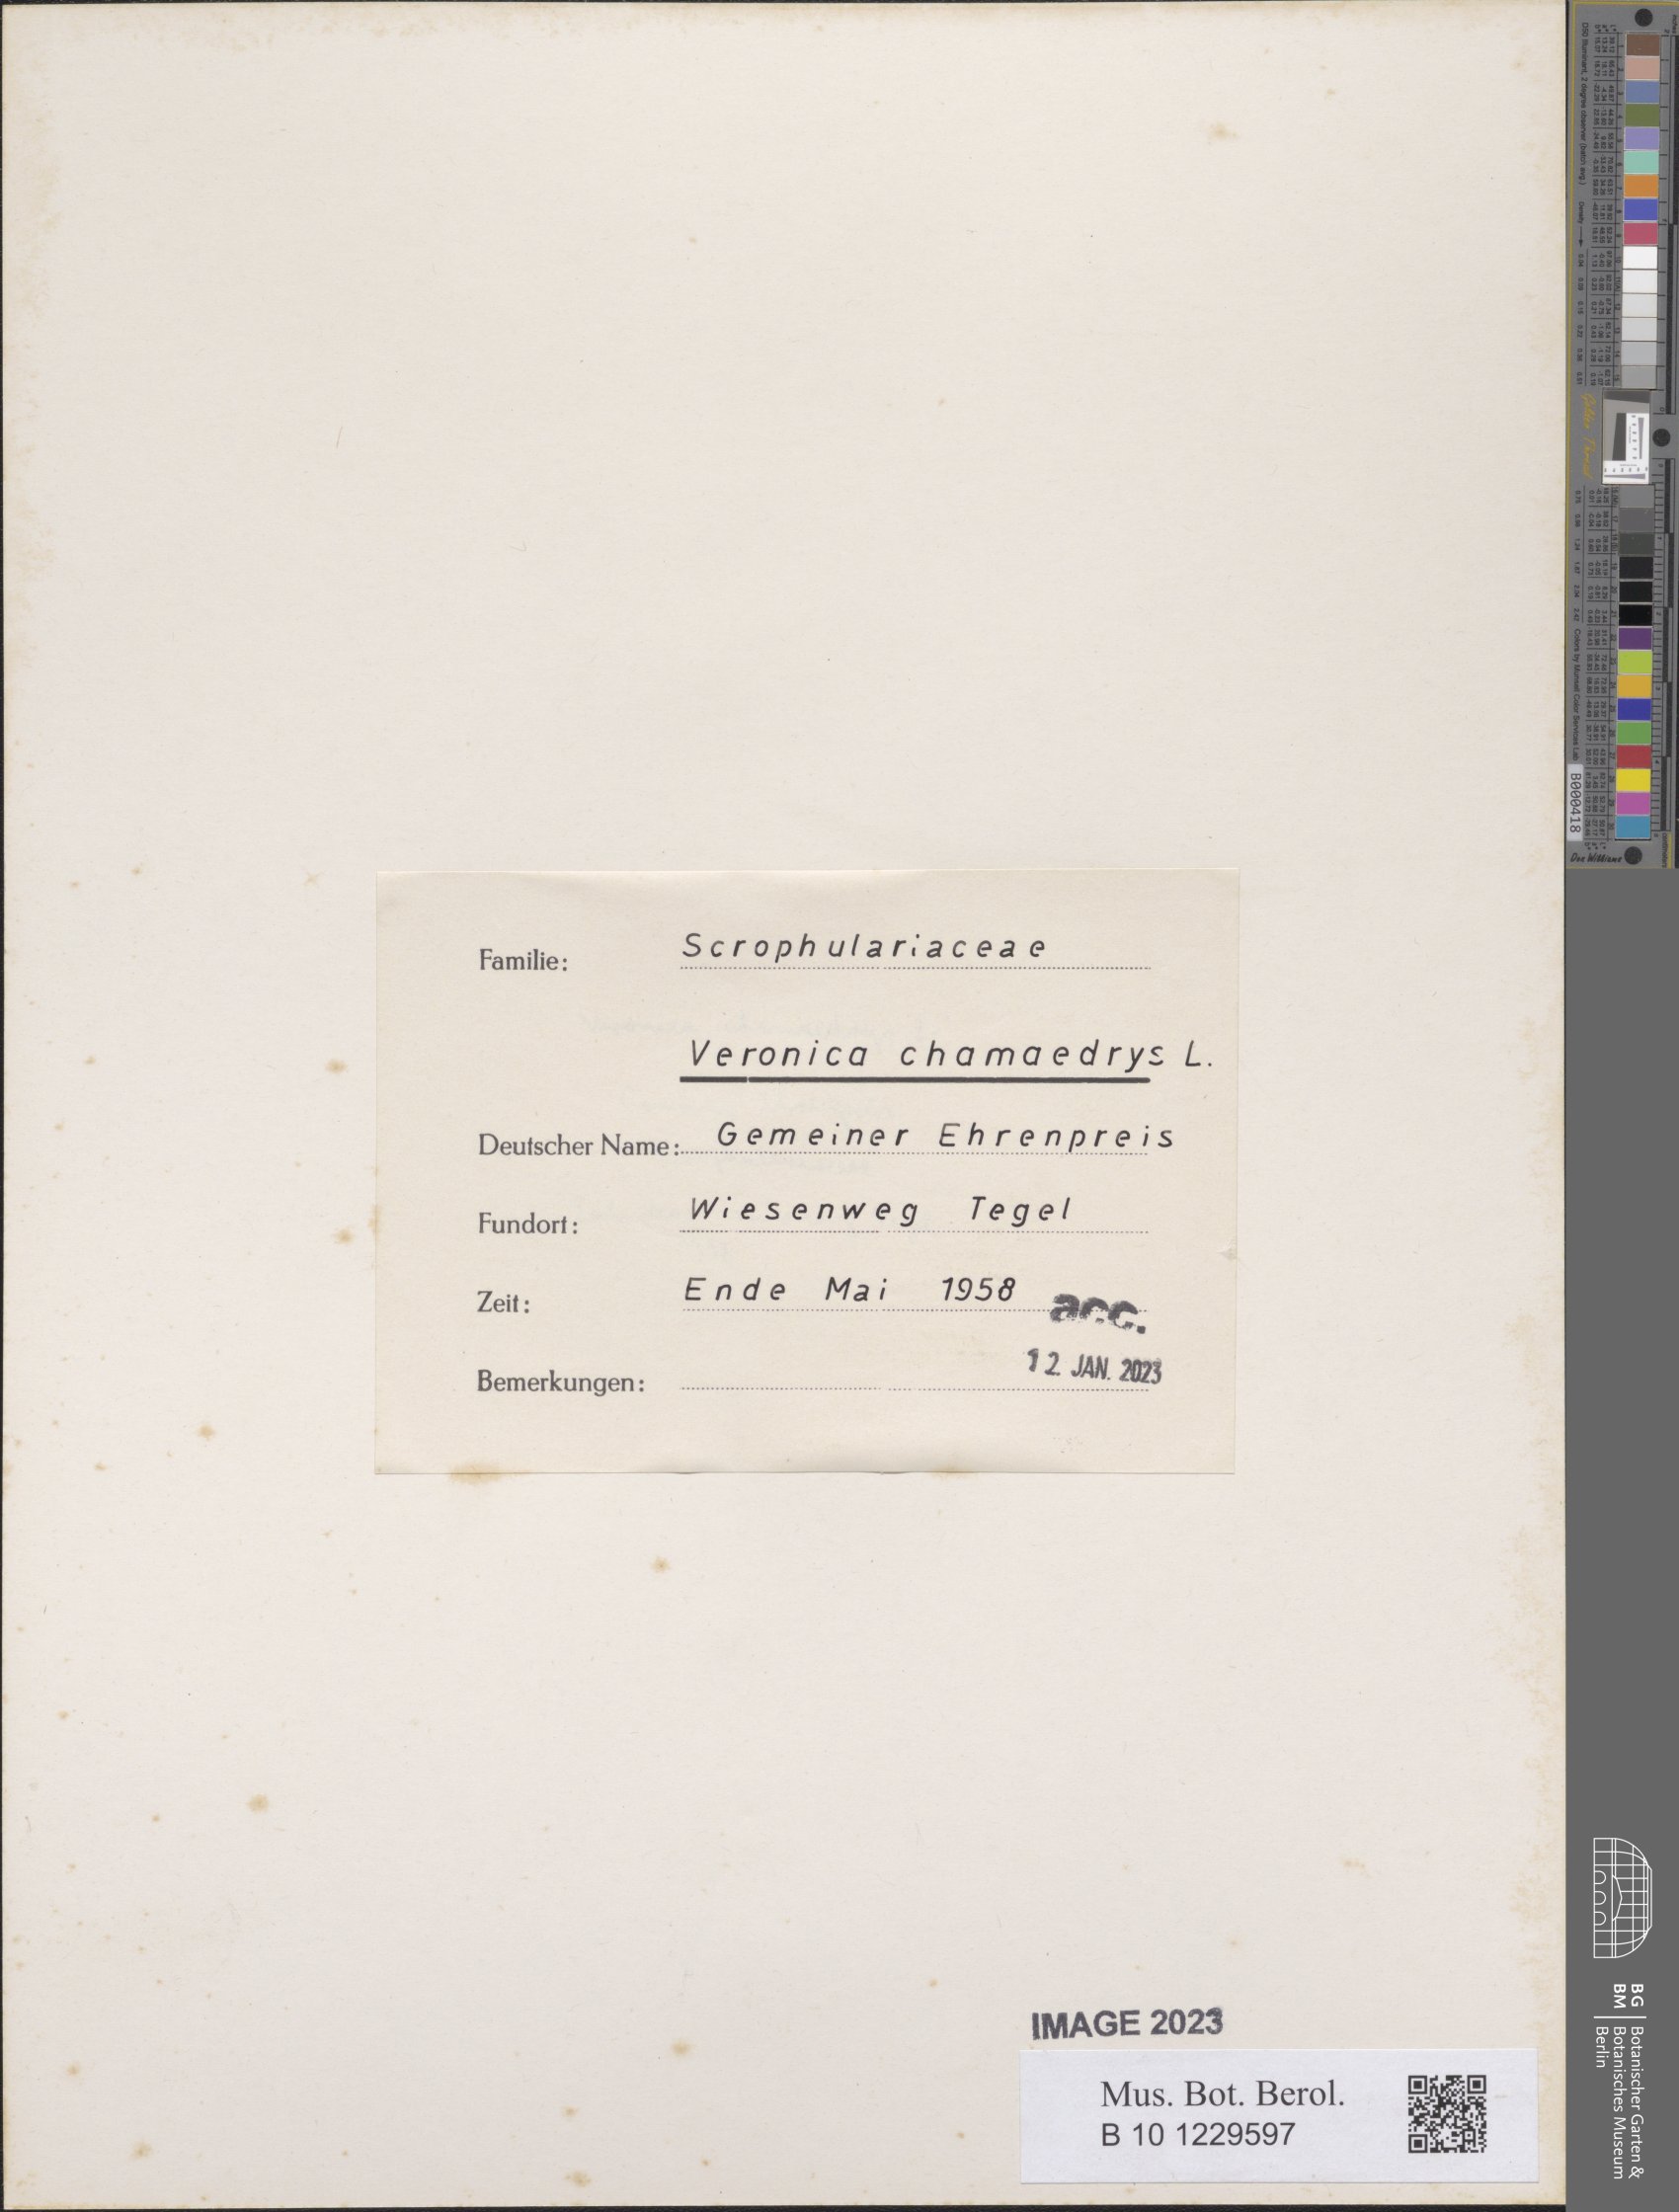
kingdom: Plantae
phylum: Tracheophyta
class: Magnoliopsida
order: Lamiales
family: Plantaginaceae
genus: Veronica
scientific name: Veronica chamaedrys
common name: Germander speedwell
